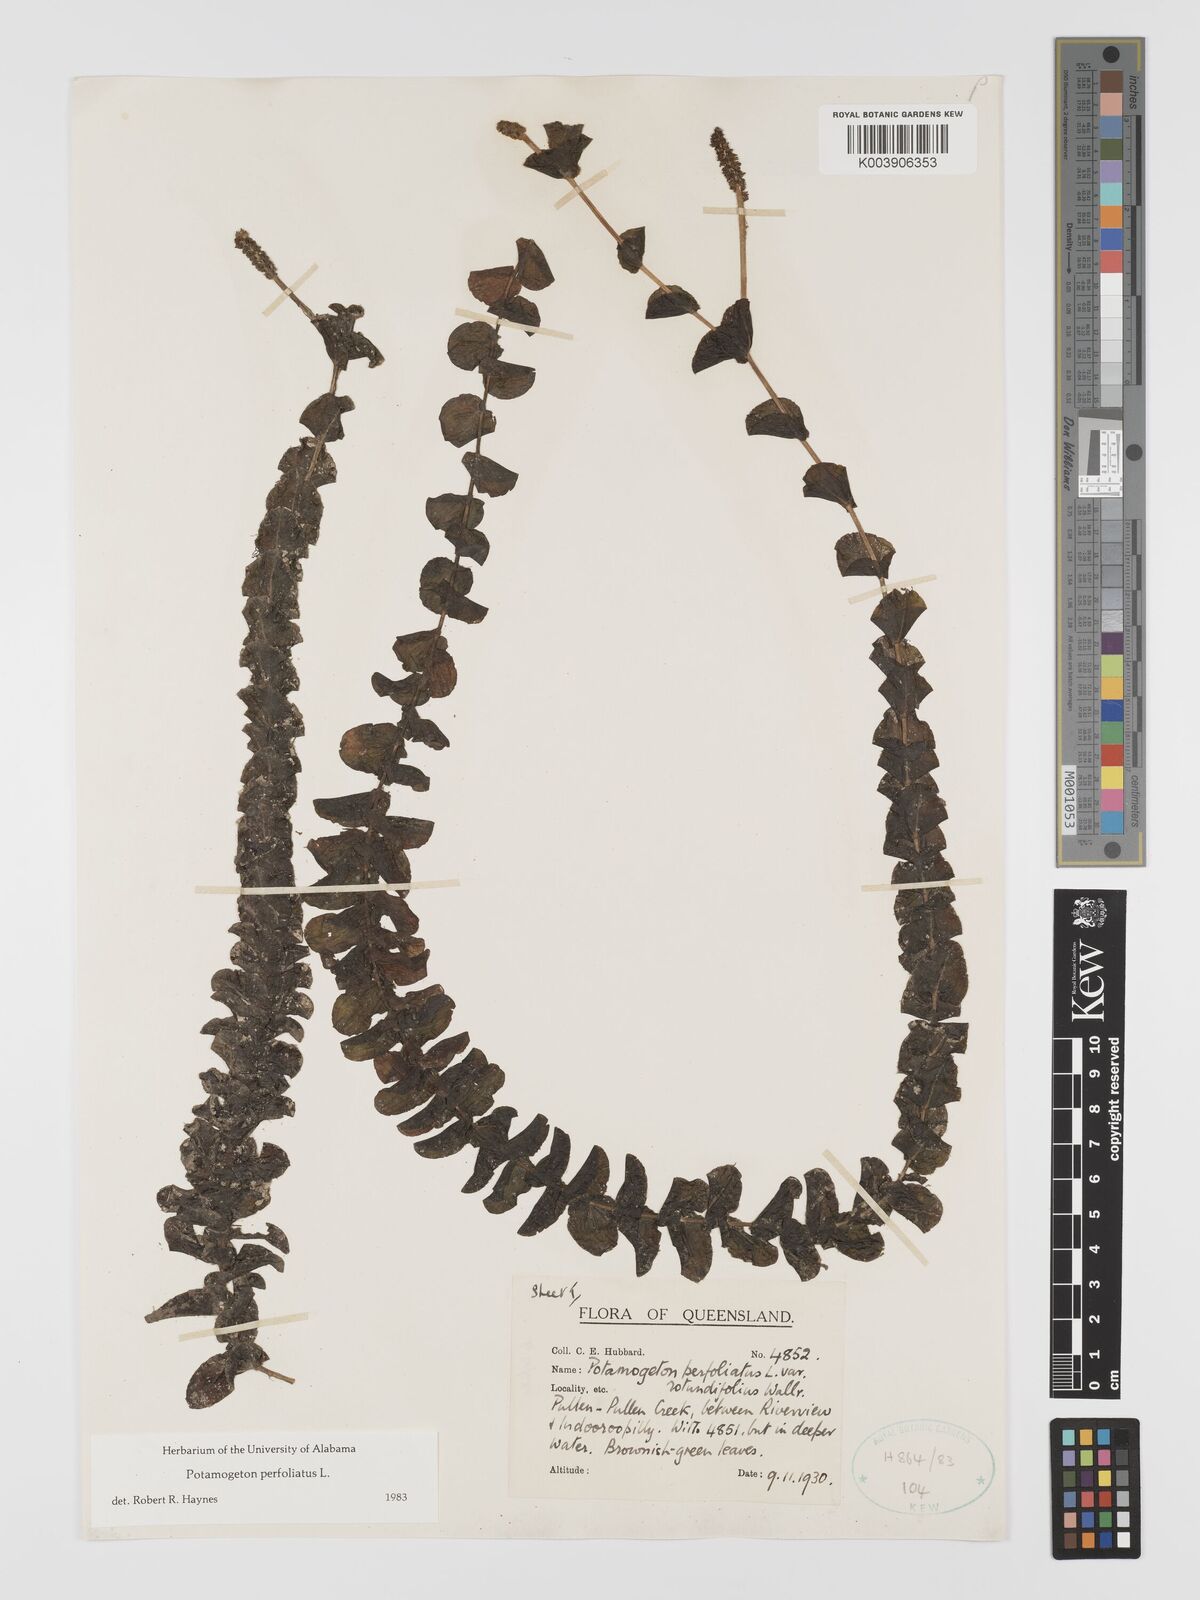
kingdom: Plantae
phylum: Tracheophyta
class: Liliopsida
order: Alismatales
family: Potamogetonaceae
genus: Potamogeton
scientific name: Potamogeton perfoliatus
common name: Perfoliate pondweed
